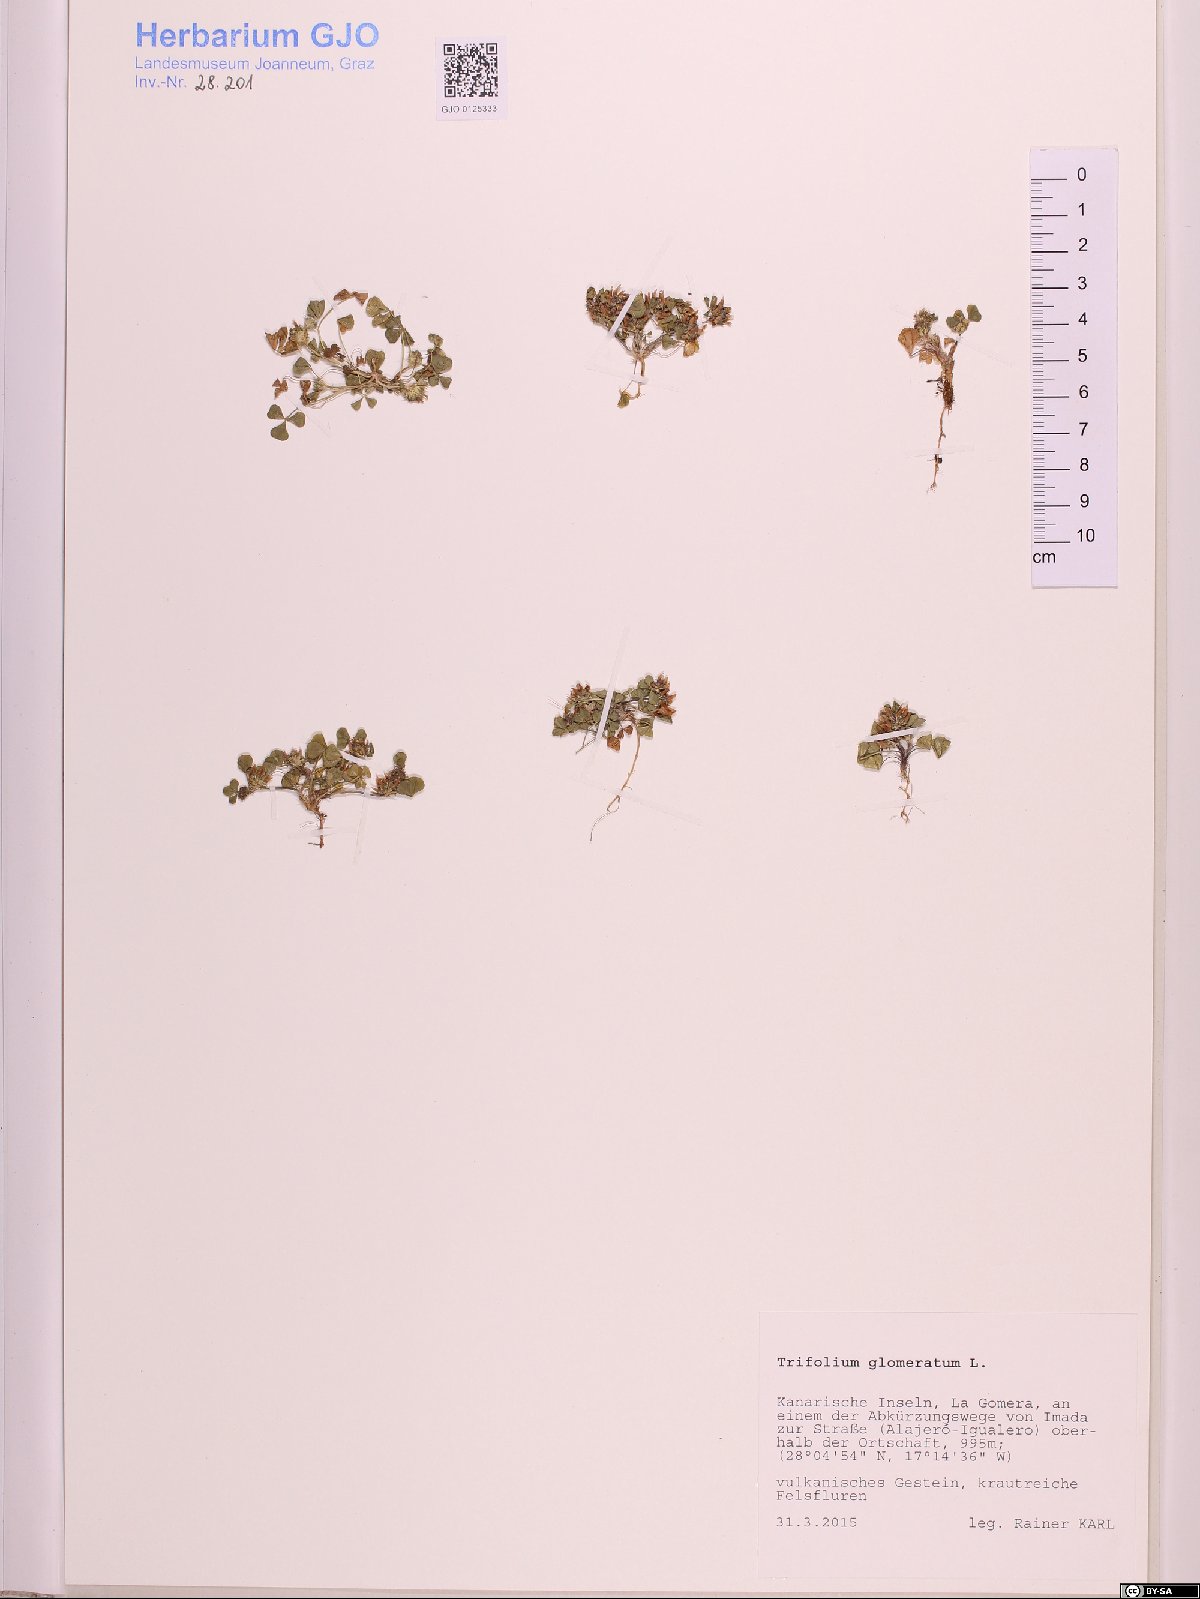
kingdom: Plantae
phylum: Tracheophyta
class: Magnoliopsida
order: Fabales
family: Fabaceae
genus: Trifolium
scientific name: Trifolium glomeratum
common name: Clustered clover
